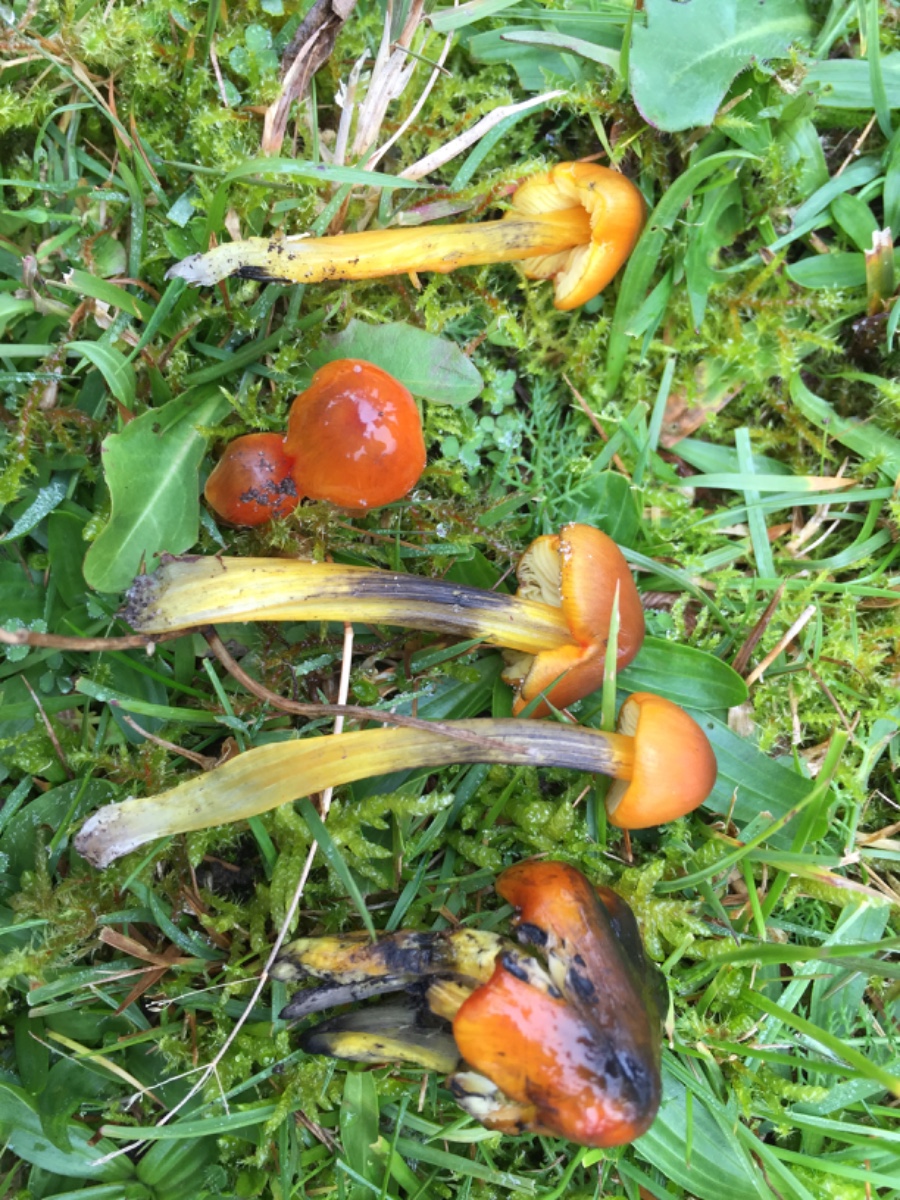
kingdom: Fungi
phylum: Basidiomycota
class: Agaricomycetes
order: Agaricales
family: Hygrophoraceae
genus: Hygrocybe
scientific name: Hygrocybe conica
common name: kegle-vokshat
